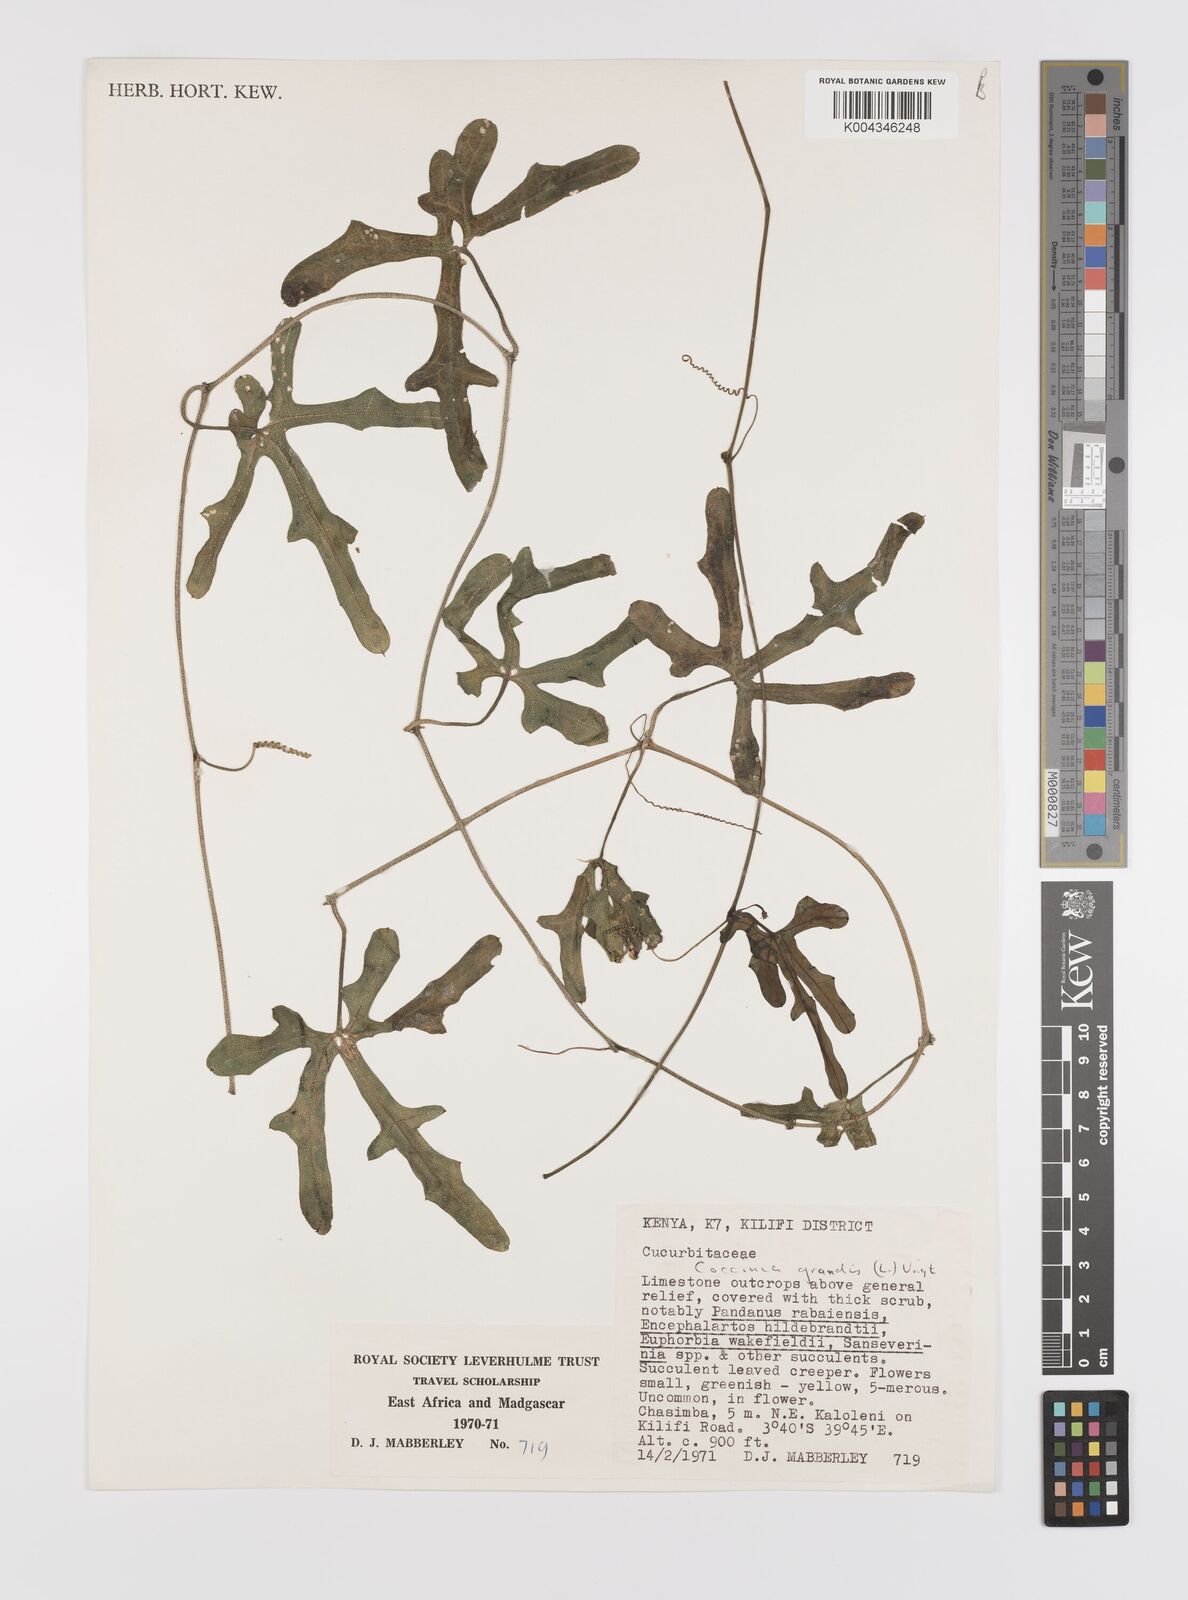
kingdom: Plantae
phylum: Tracheophyta
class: Magnoliopsida
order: Cucurbitales
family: Cucurbitaceae
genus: Coccinia
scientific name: Coccinia grandis
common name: Ivy gourd
